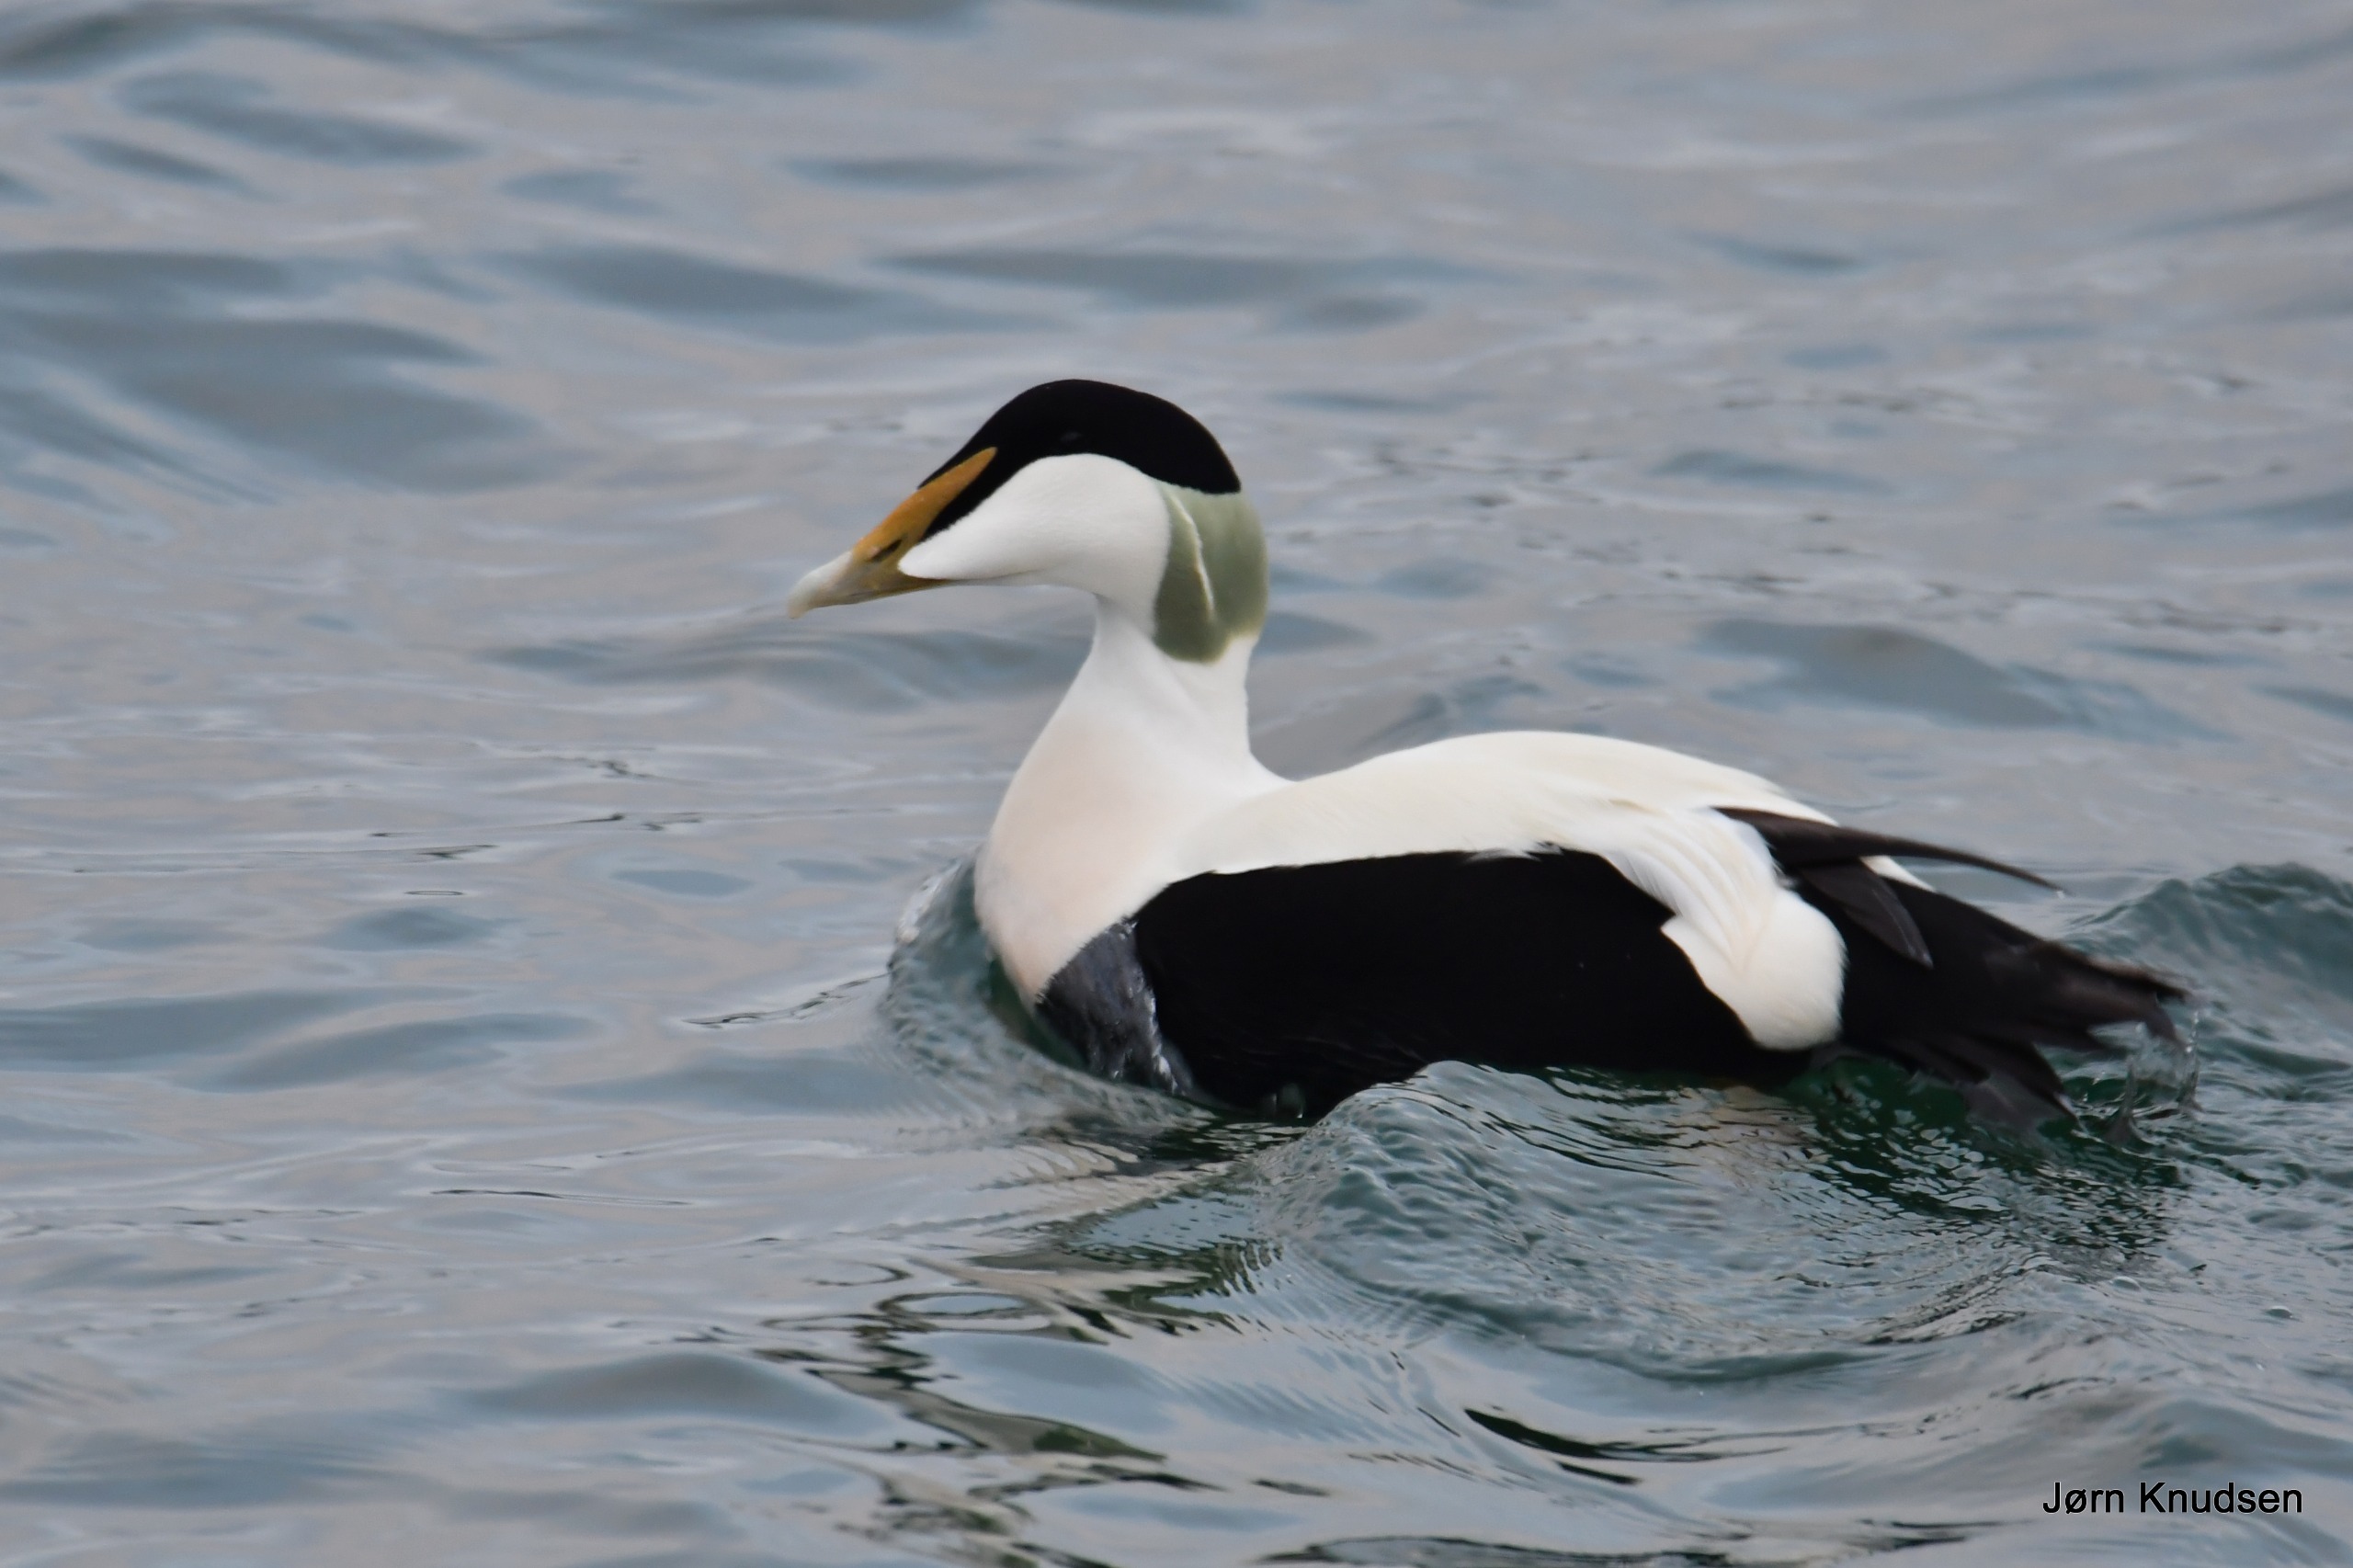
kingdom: Animalia
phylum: Chordata
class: Aves
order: Anseriformes
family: Anatidae
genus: Somateria
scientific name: Somateria mollissima
